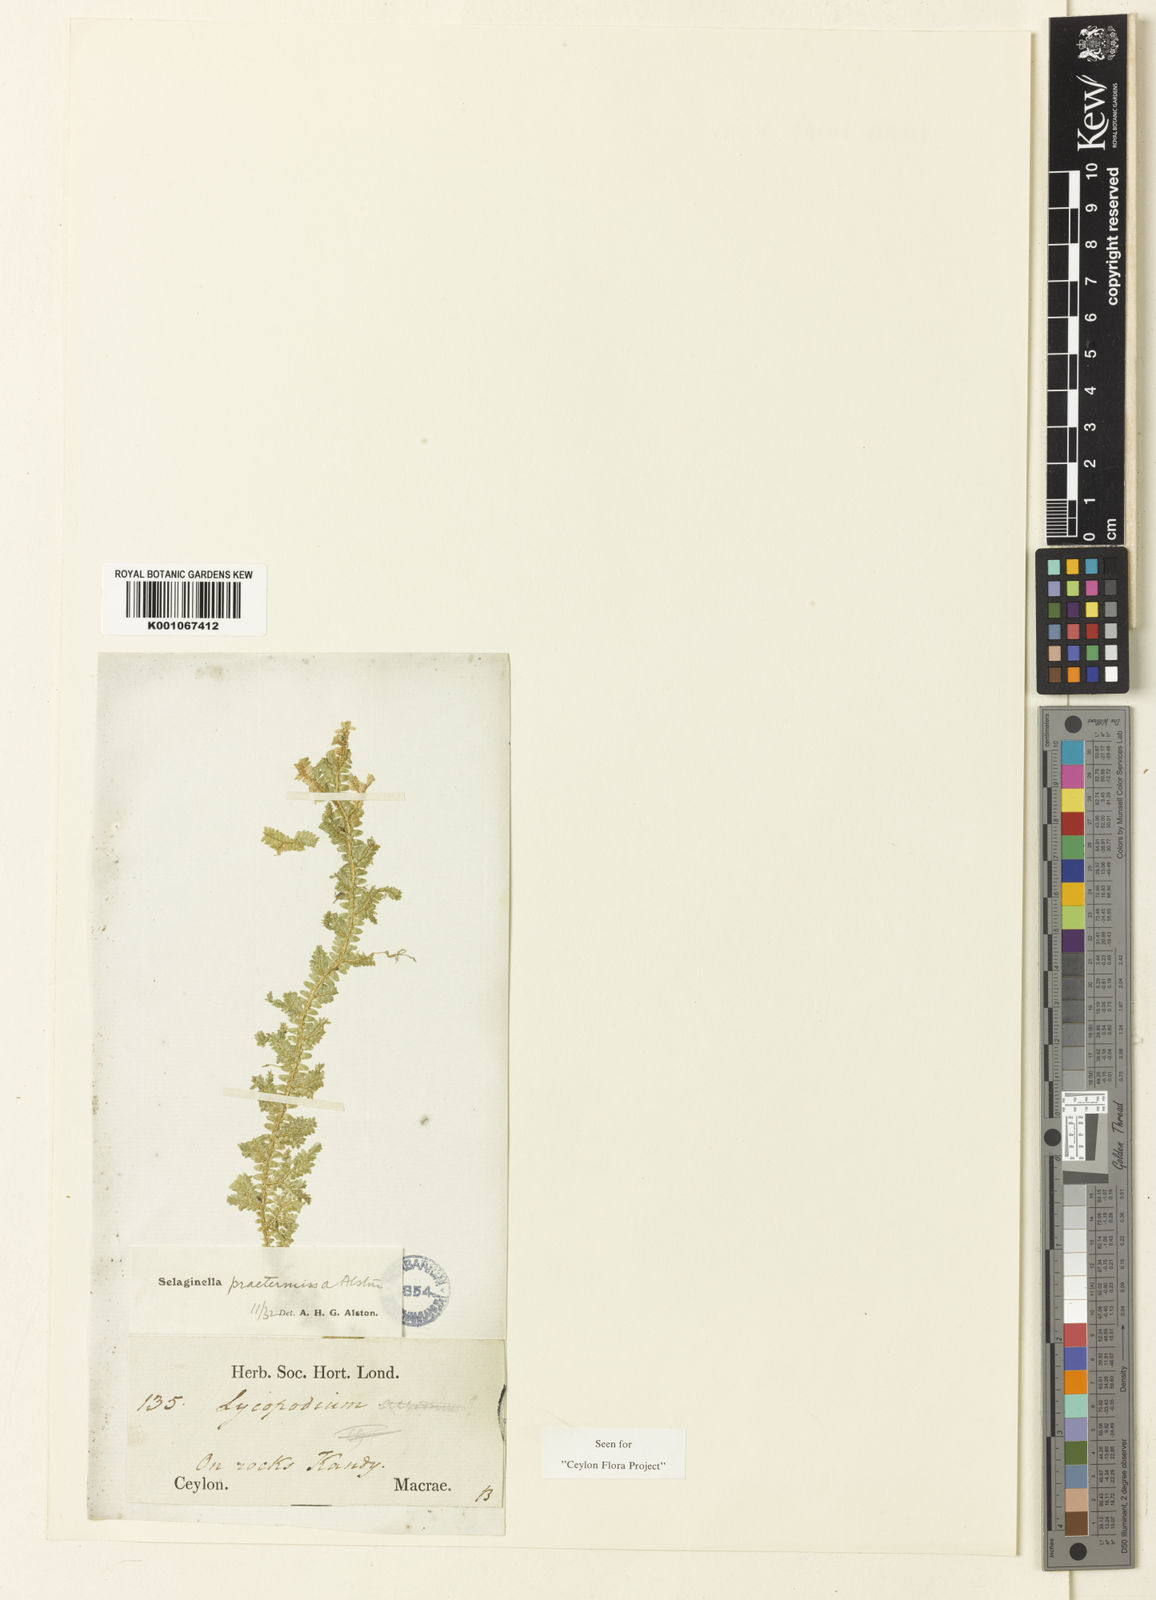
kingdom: Plantae
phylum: Tracheophyta
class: Lycopodiopsida
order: Selaginellales
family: Selaginellaceae
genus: Selaginella
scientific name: Selaginella praetermissa
